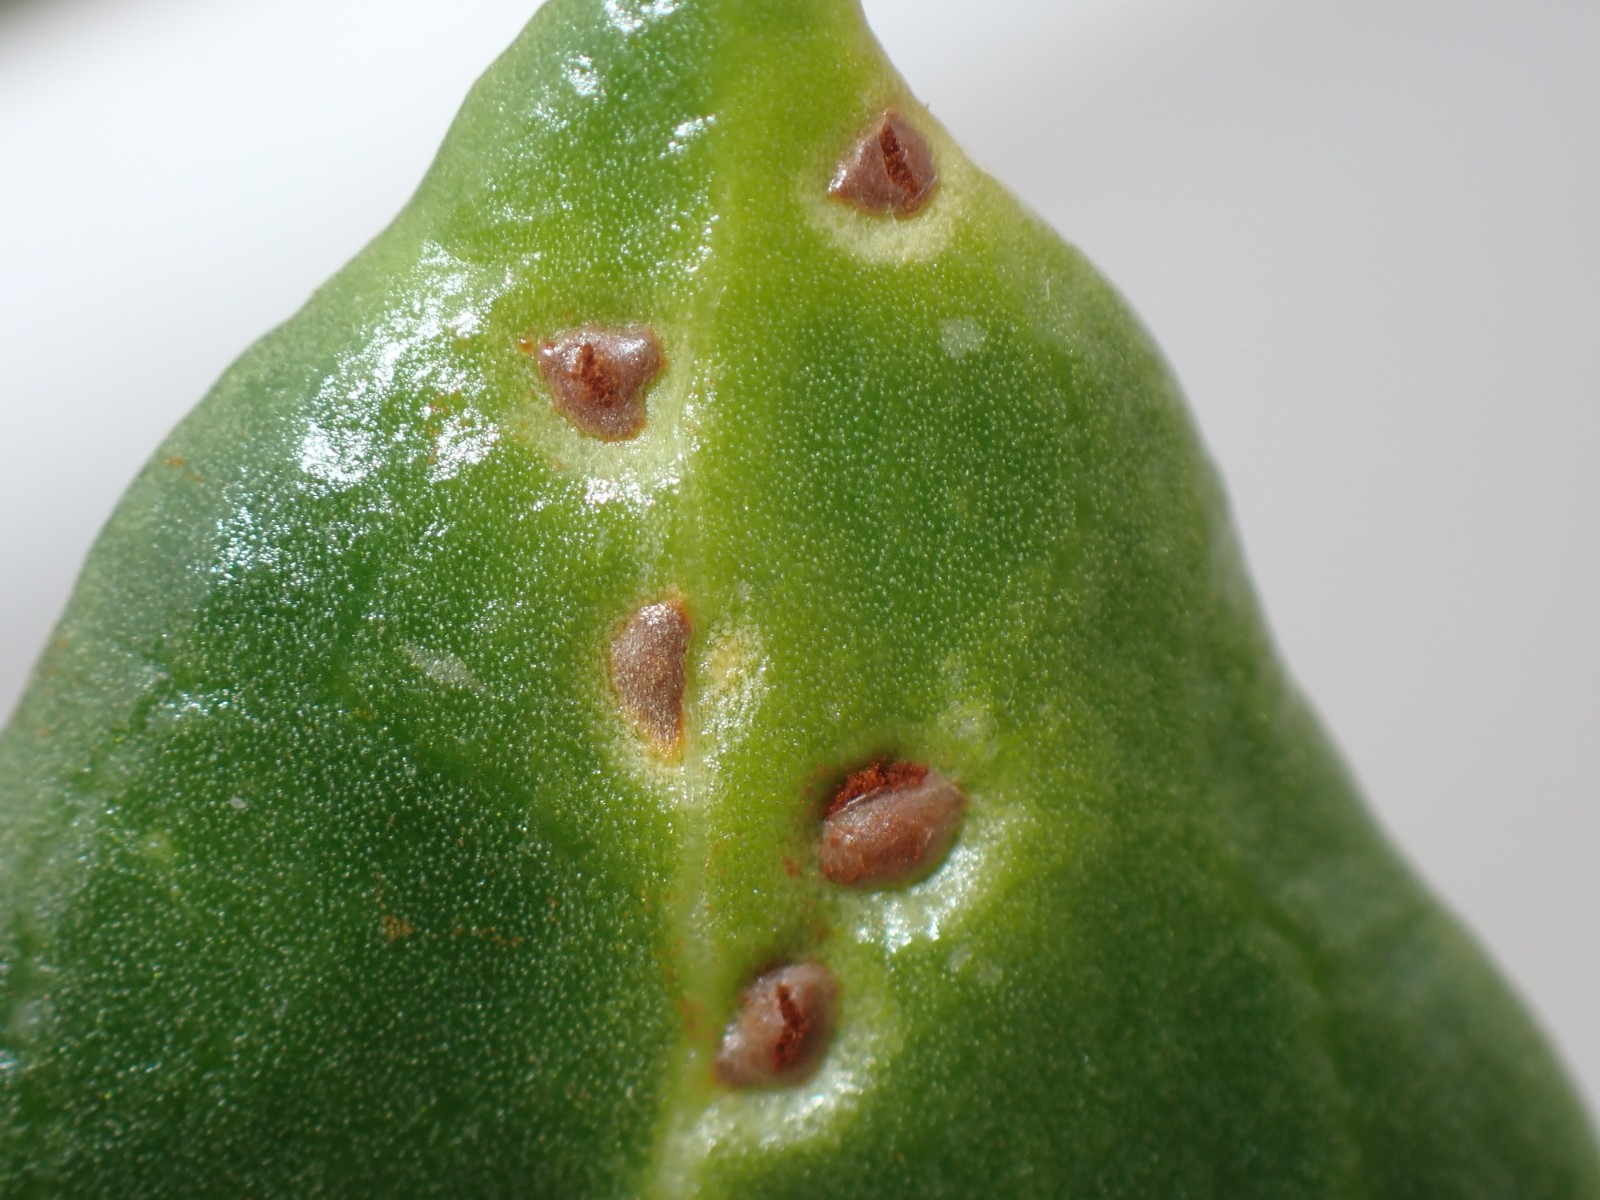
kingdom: Fungi
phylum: Basidiomycota
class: Pucciniomycetes
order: Pucciniales
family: Pucciniaceae
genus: Uromyces
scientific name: Uromyces betae
